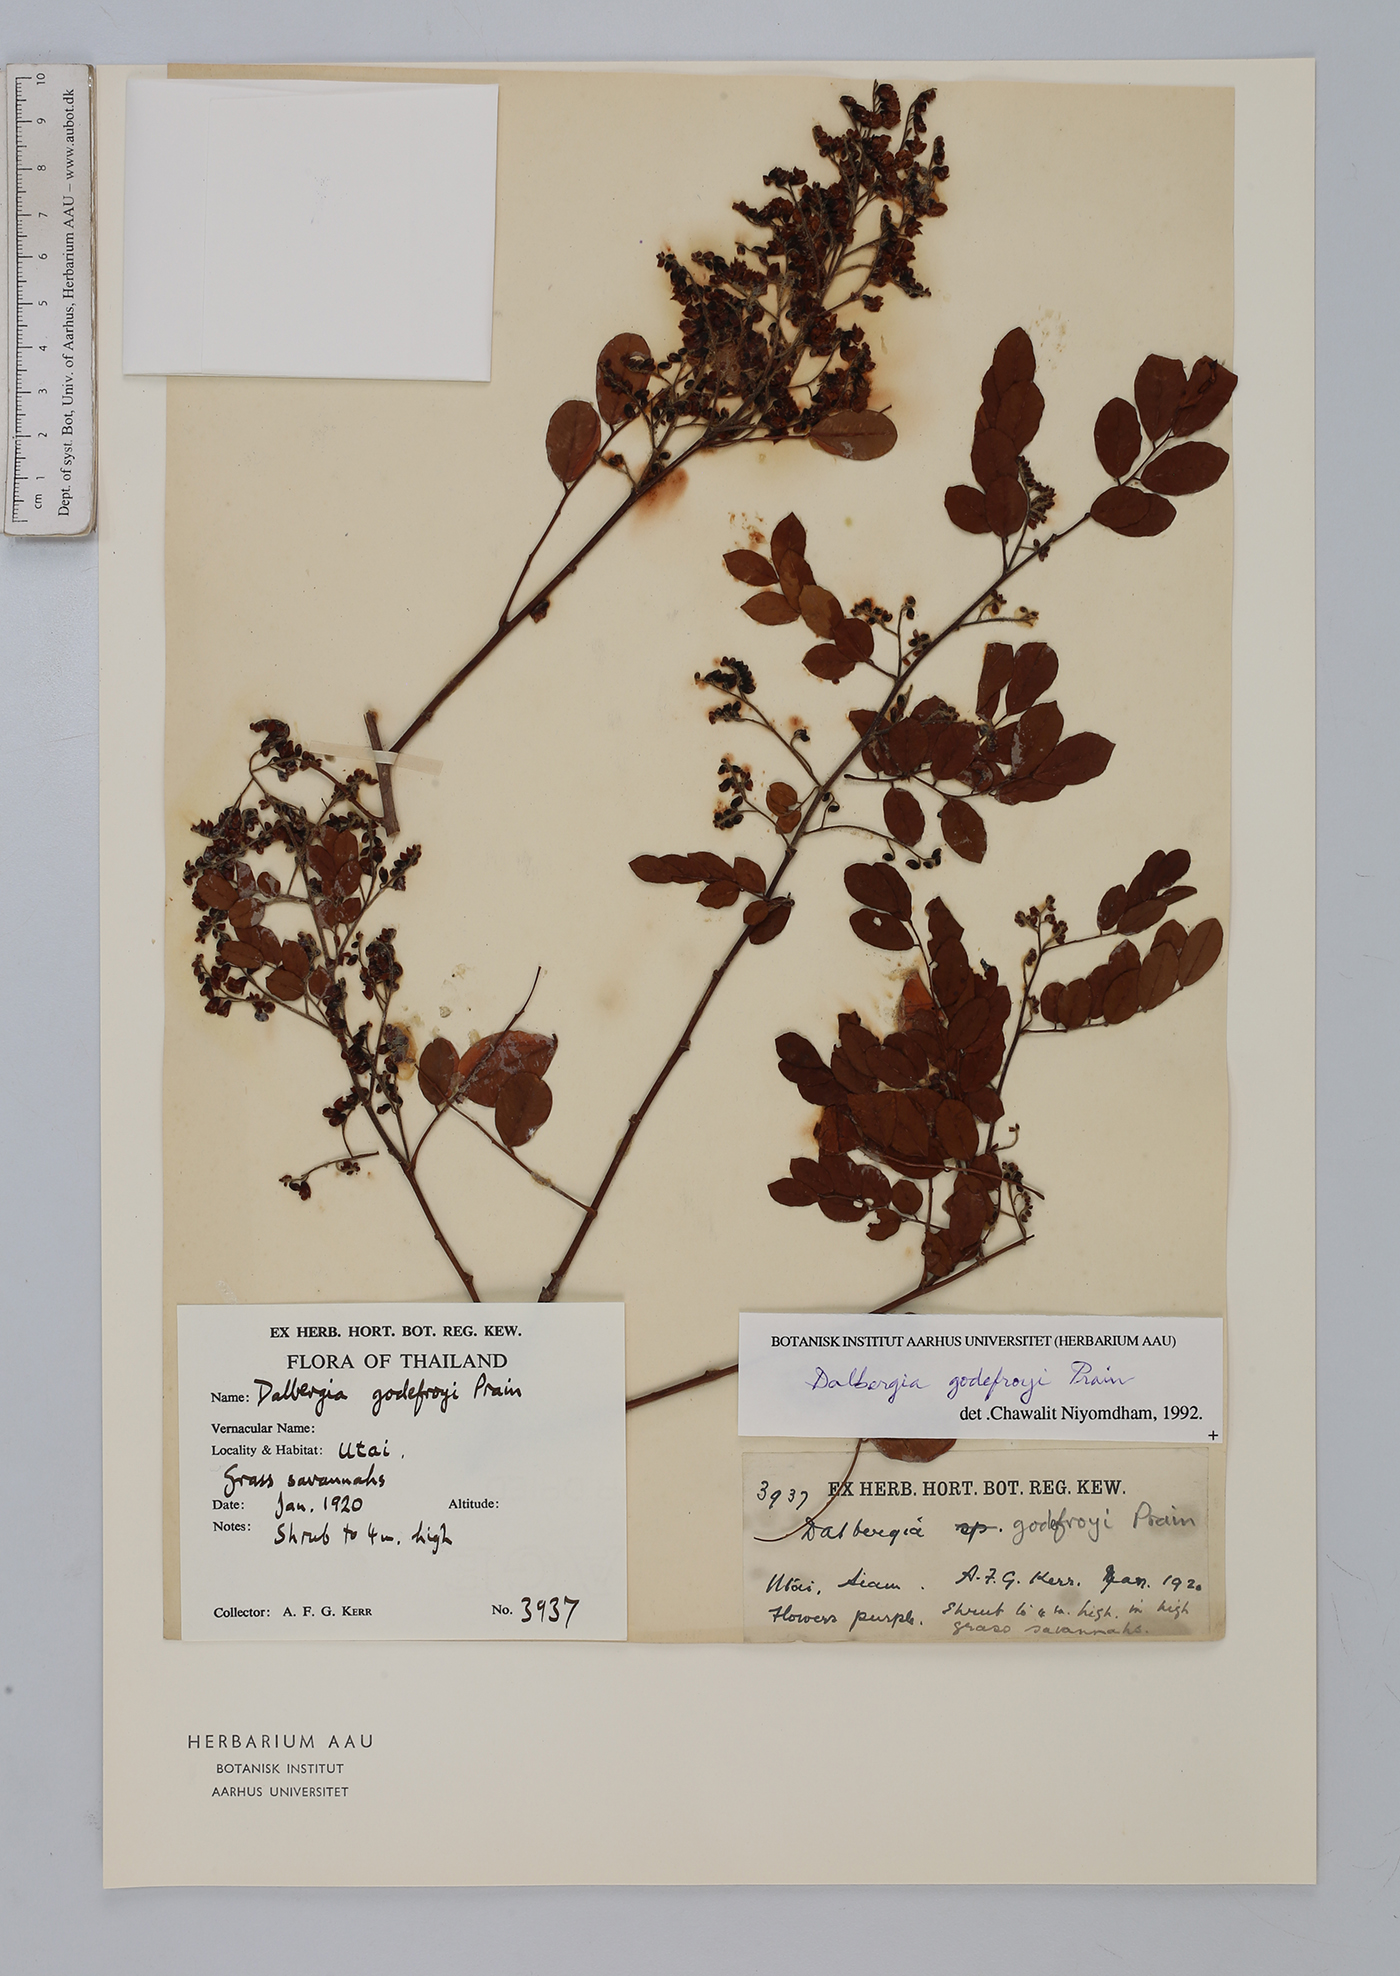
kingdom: Plantae
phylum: Tracheophyta
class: Magnoliopsida
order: Fabales
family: Fabaceae
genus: Dalbergia
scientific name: Dalbergia godefroyi
